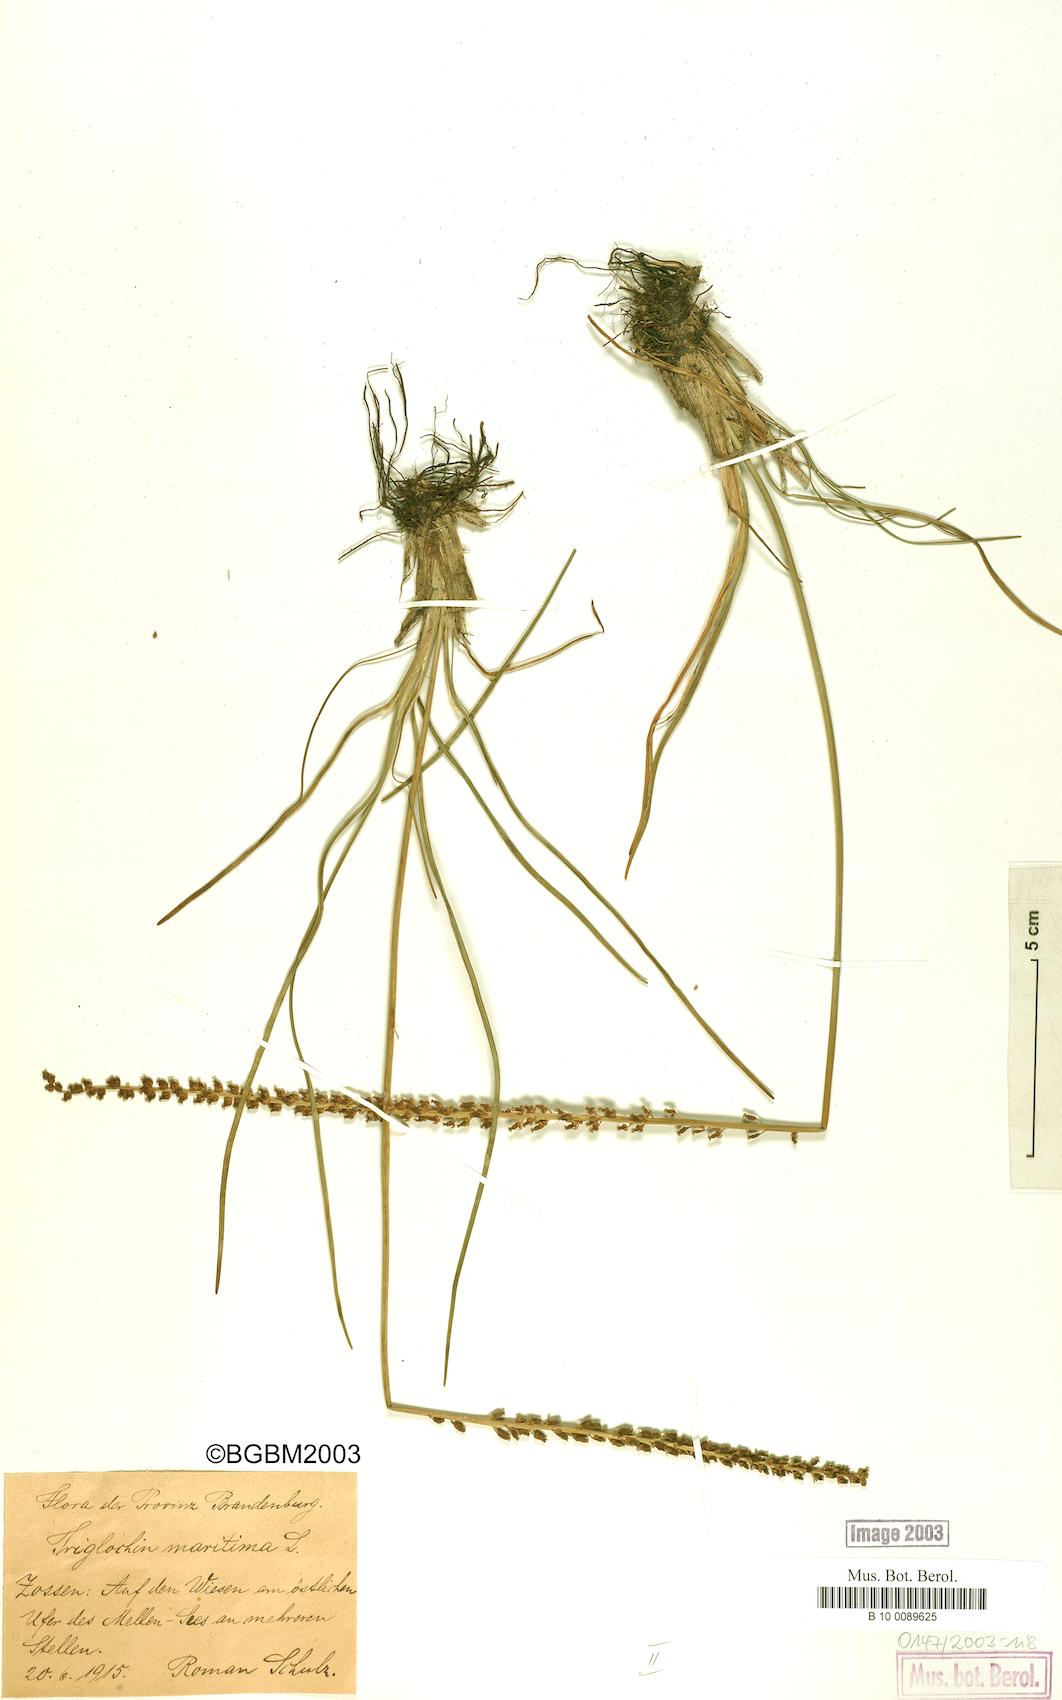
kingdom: Plantae
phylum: Tracheophyta
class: Liliopsida
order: Alismatales
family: Juncaginaceae
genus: Triglochin
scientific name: Triglochin maritima
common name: Sea arrowgrass
